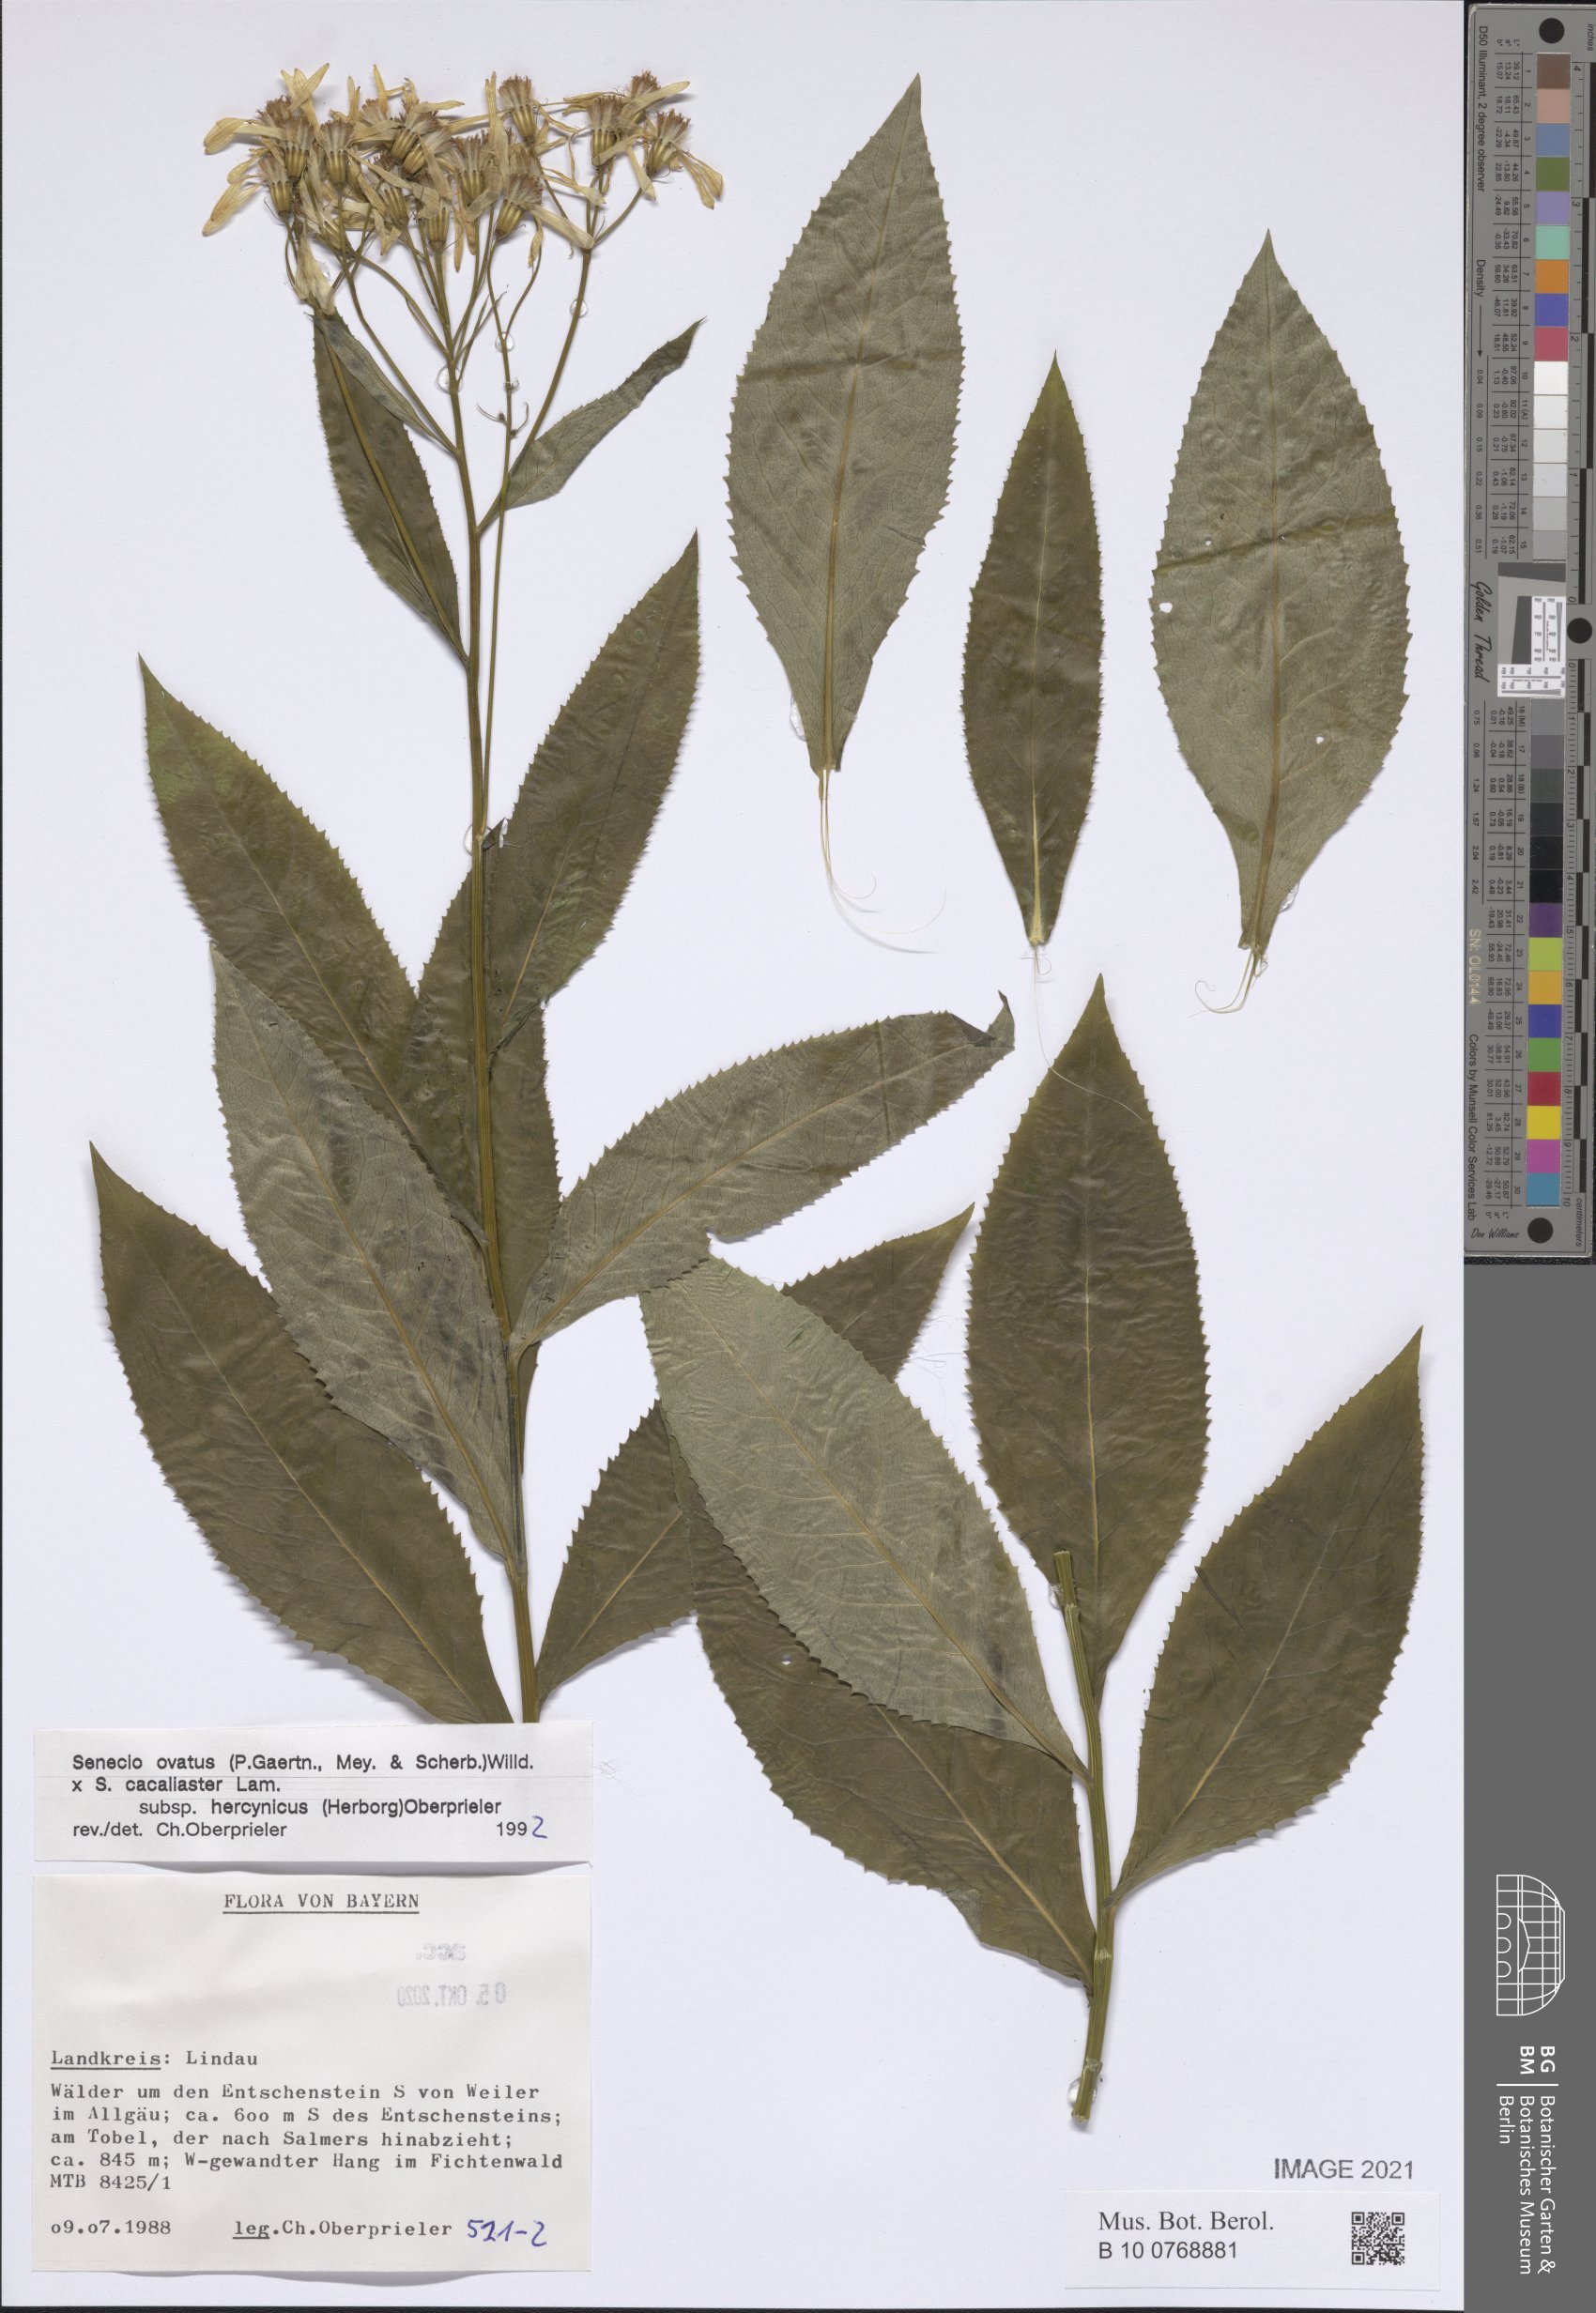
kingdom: Plantae
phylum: Tracheophyta
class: Magnoliopsida
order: Asterales
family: Asteraceae
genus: Senecio
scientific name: Senecio ovatus
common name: Wood ragwort
